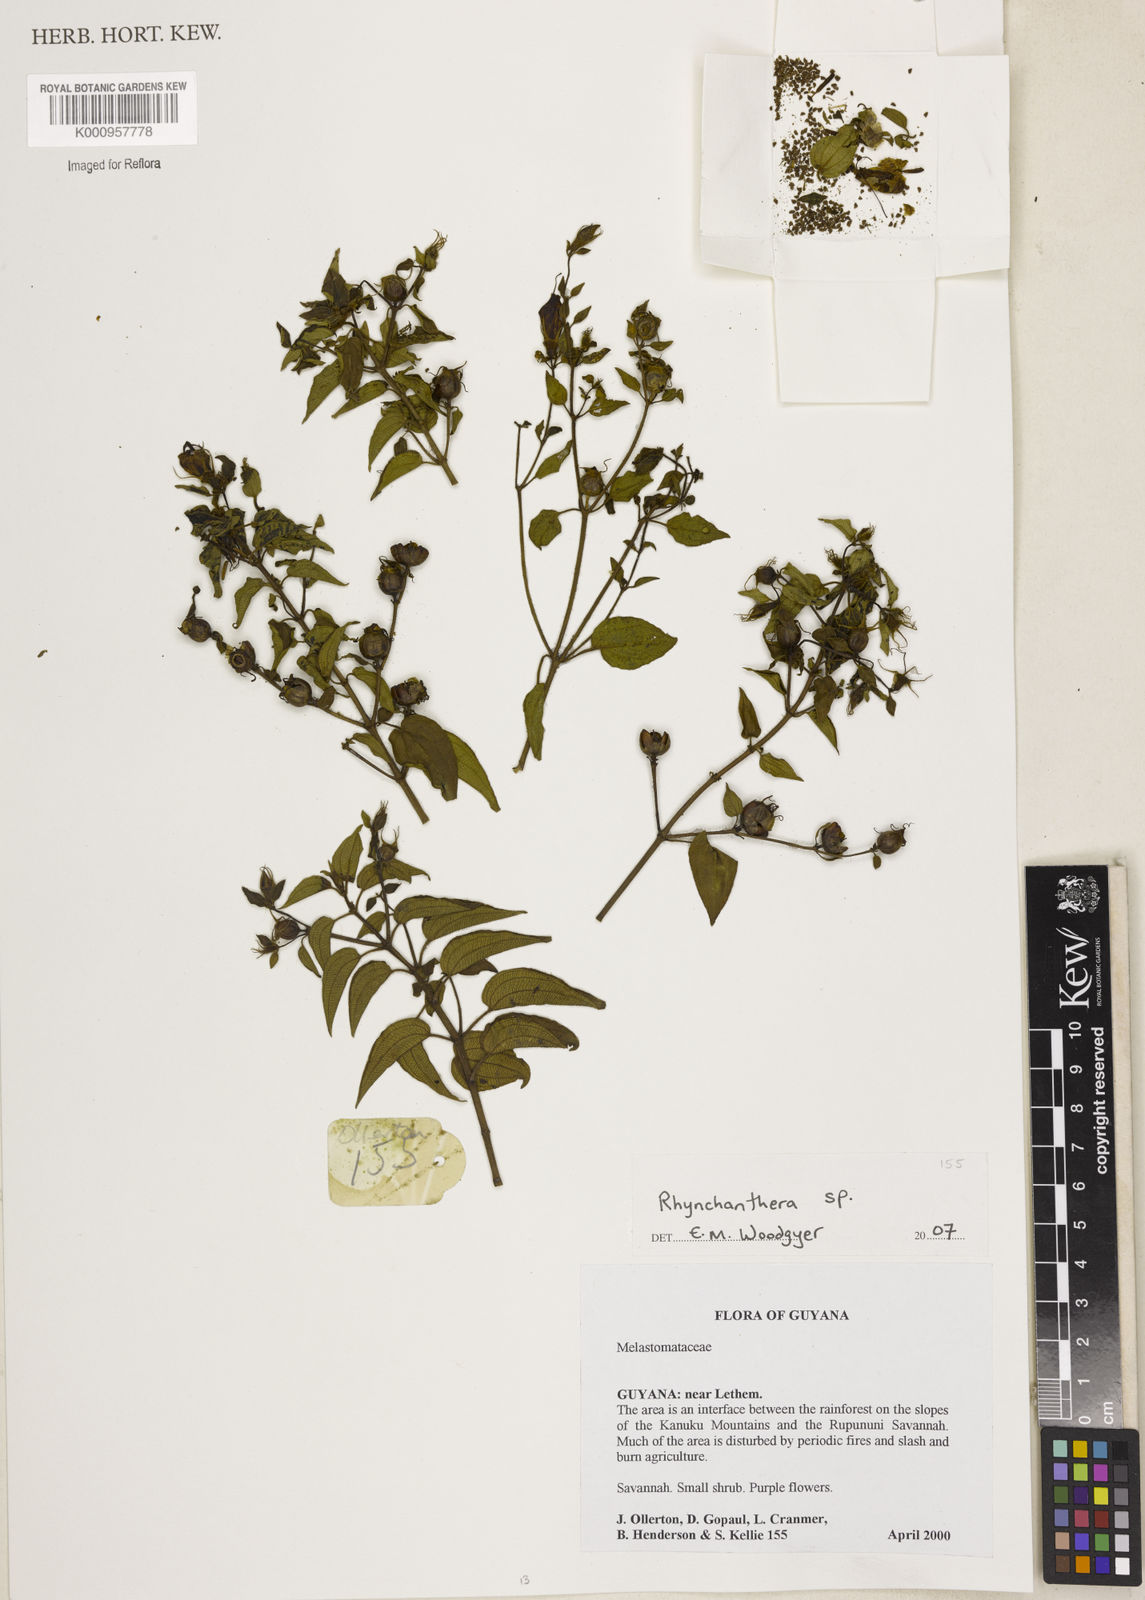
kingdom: Plantae
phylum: Tracheophyta
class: Magnoliopsida
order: Myrtales
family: Melastomataceae
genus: Rhynchanthera
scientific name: Rhynchanthera
